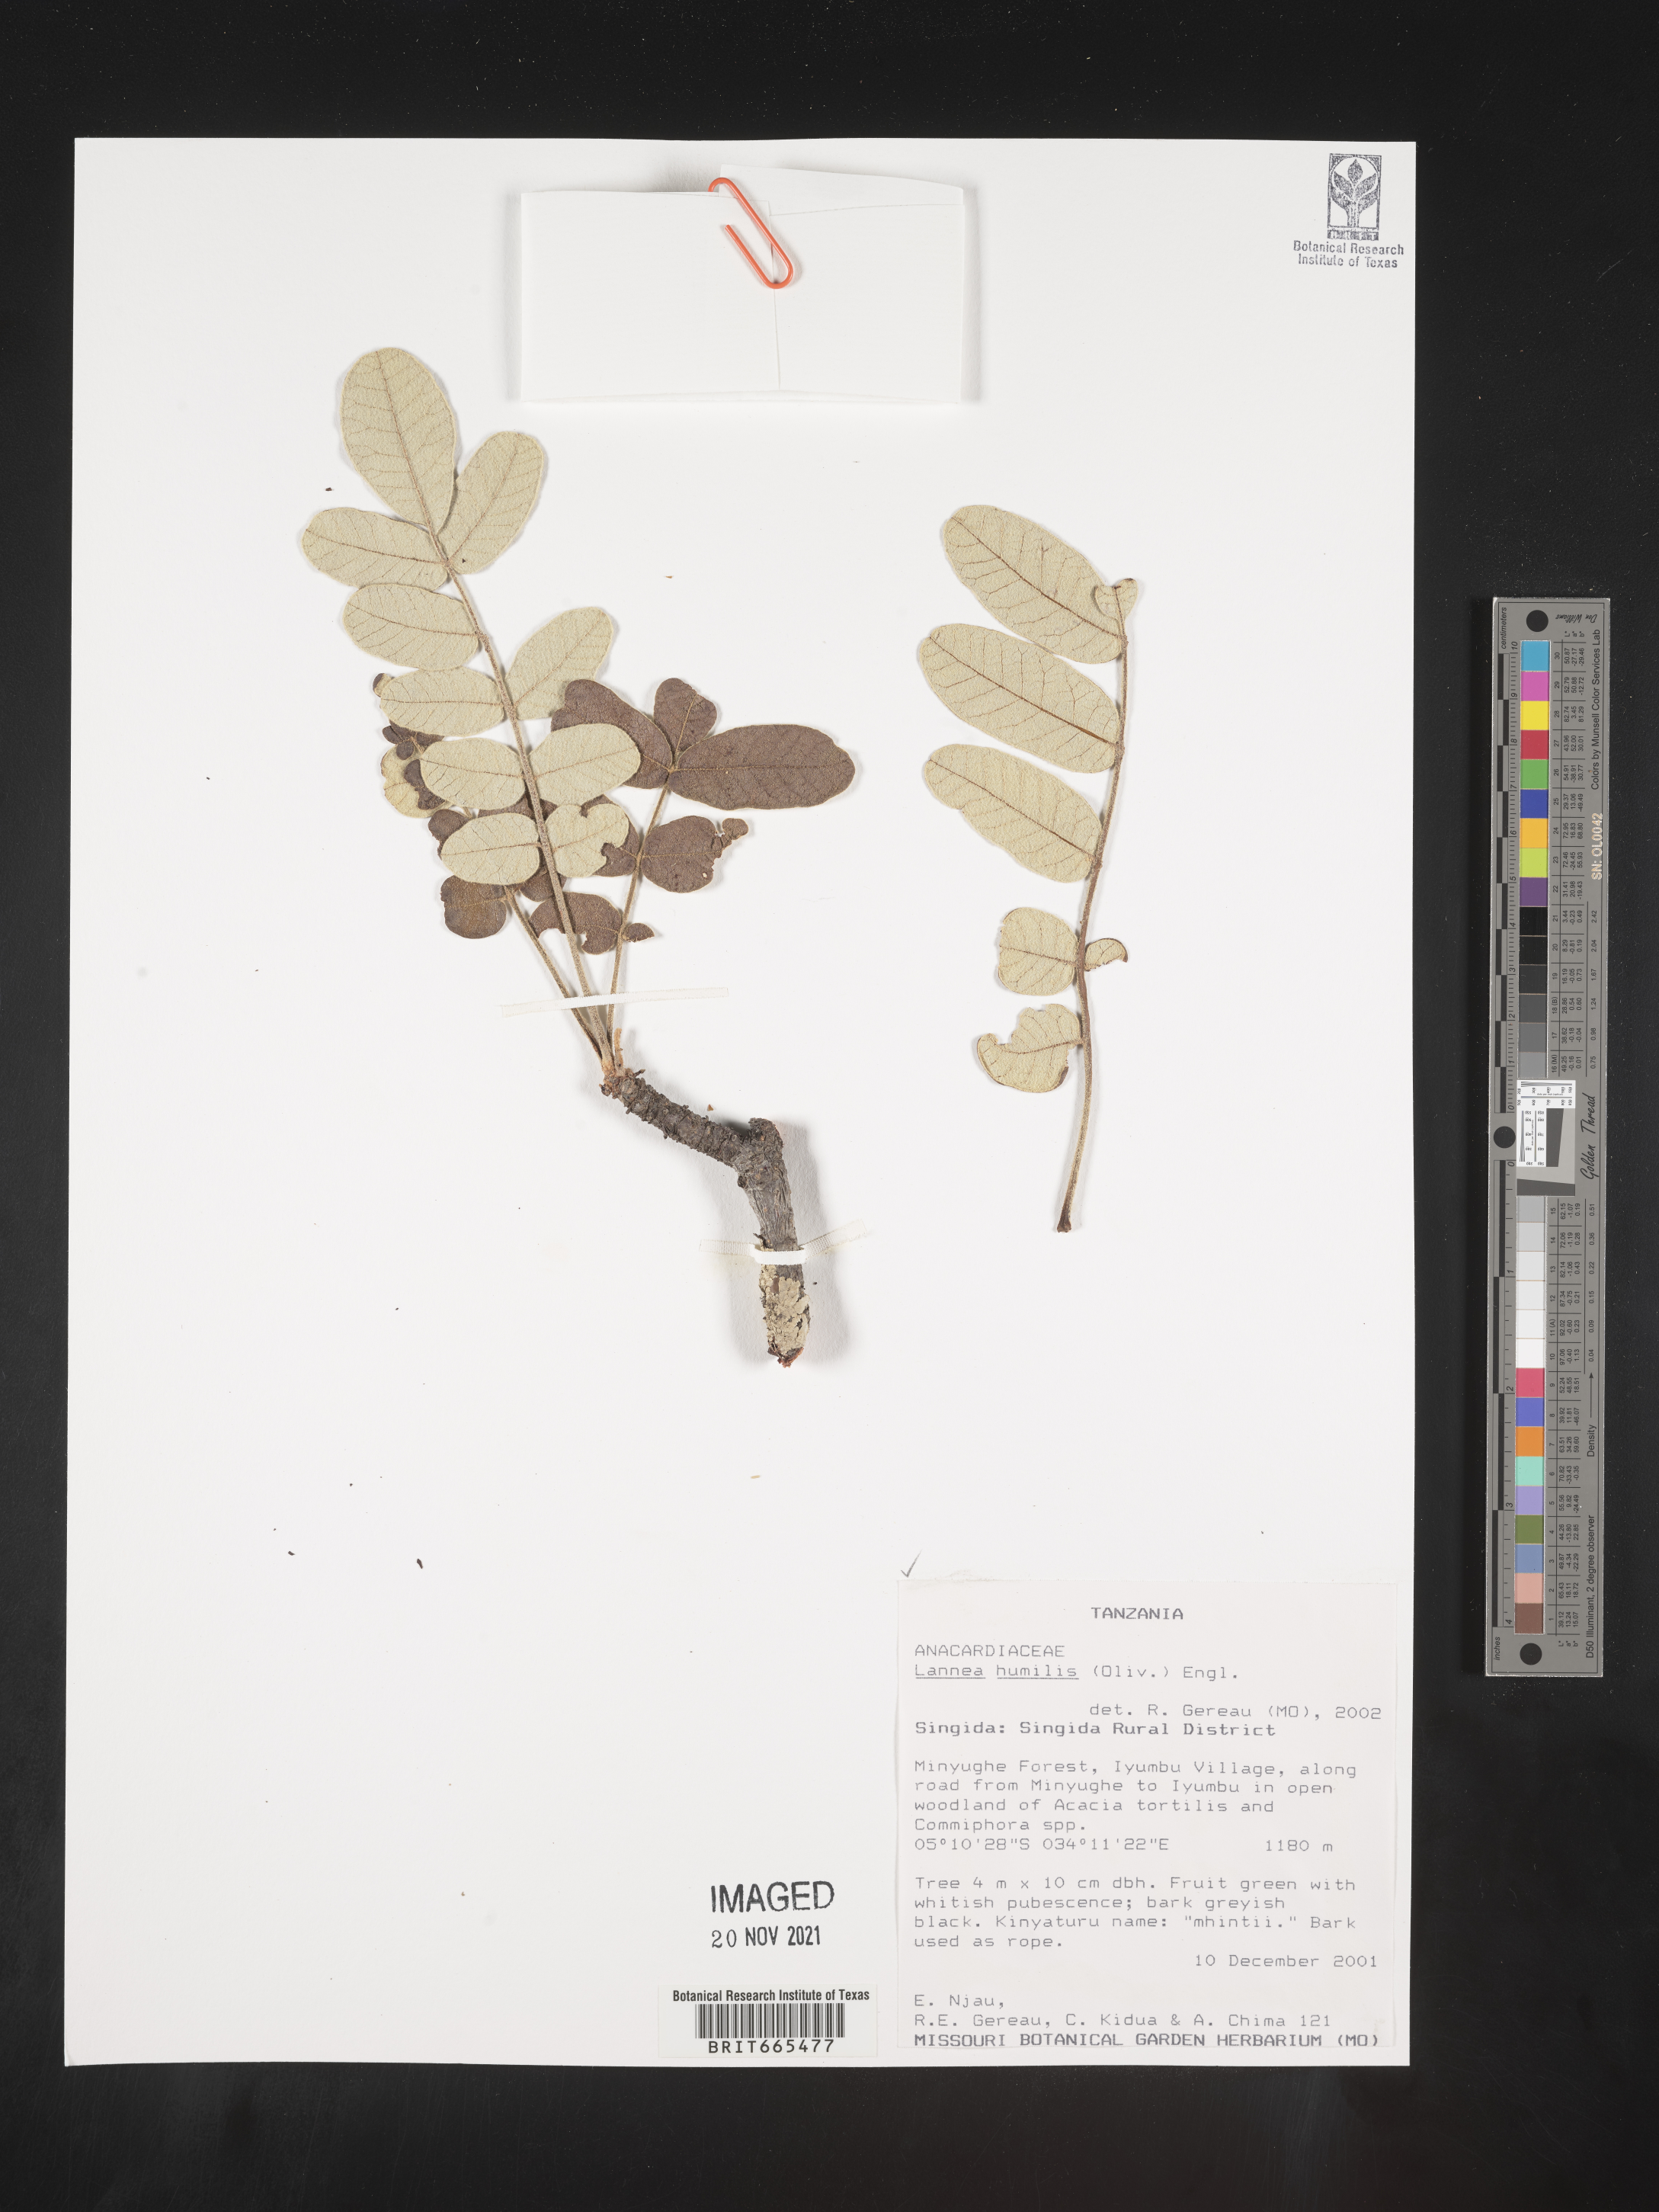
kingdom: Plantae
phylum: Tracheophyta
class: Magnoliopsida
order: Sapindales
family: Anacardiaceae
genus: Lannea
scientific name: Lannea
